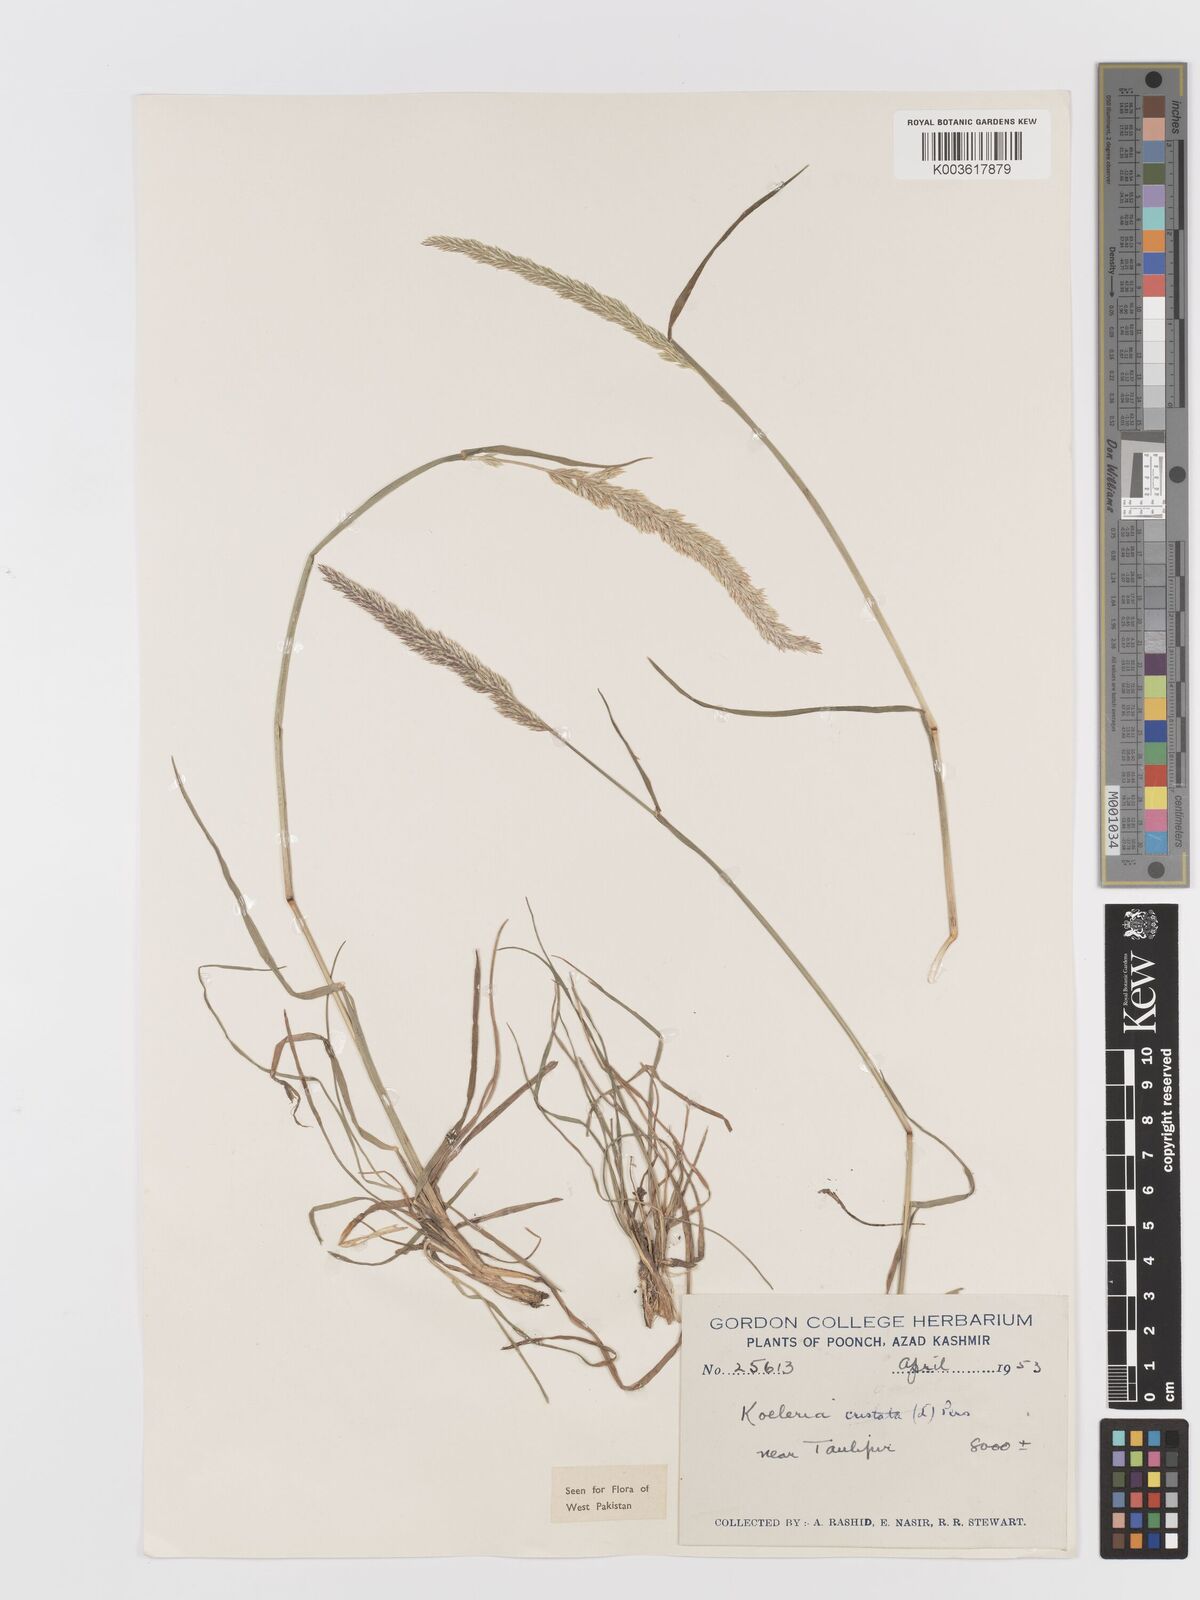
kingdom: Plantae
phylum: Tracheophyta
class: Liliopsida
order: Poales
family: Poaceae
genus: Koeleria
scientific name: Koeleria
